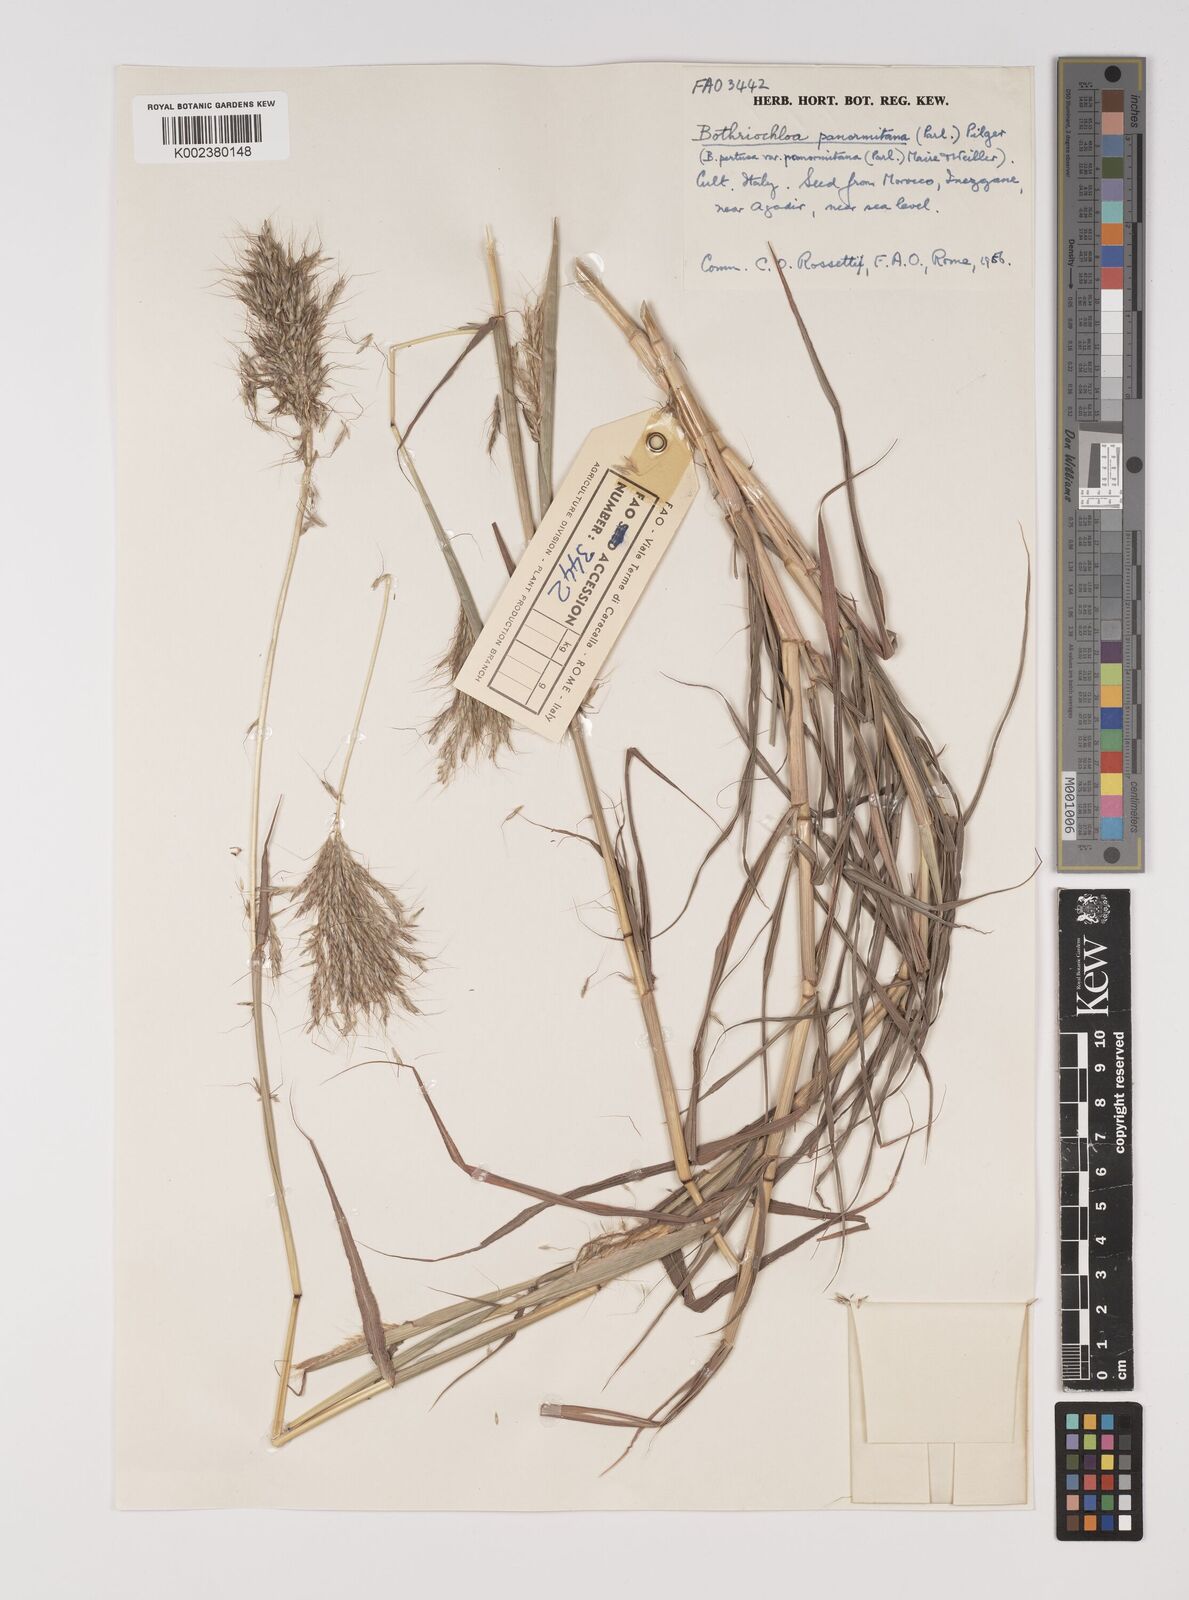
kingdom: Plantae
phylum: Tracheophyta
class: Liliopsida
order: Poales
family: Poaceae
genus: Bothriochloa
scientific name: Bothriochloa insculpta
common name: Creeping-bluegrass
